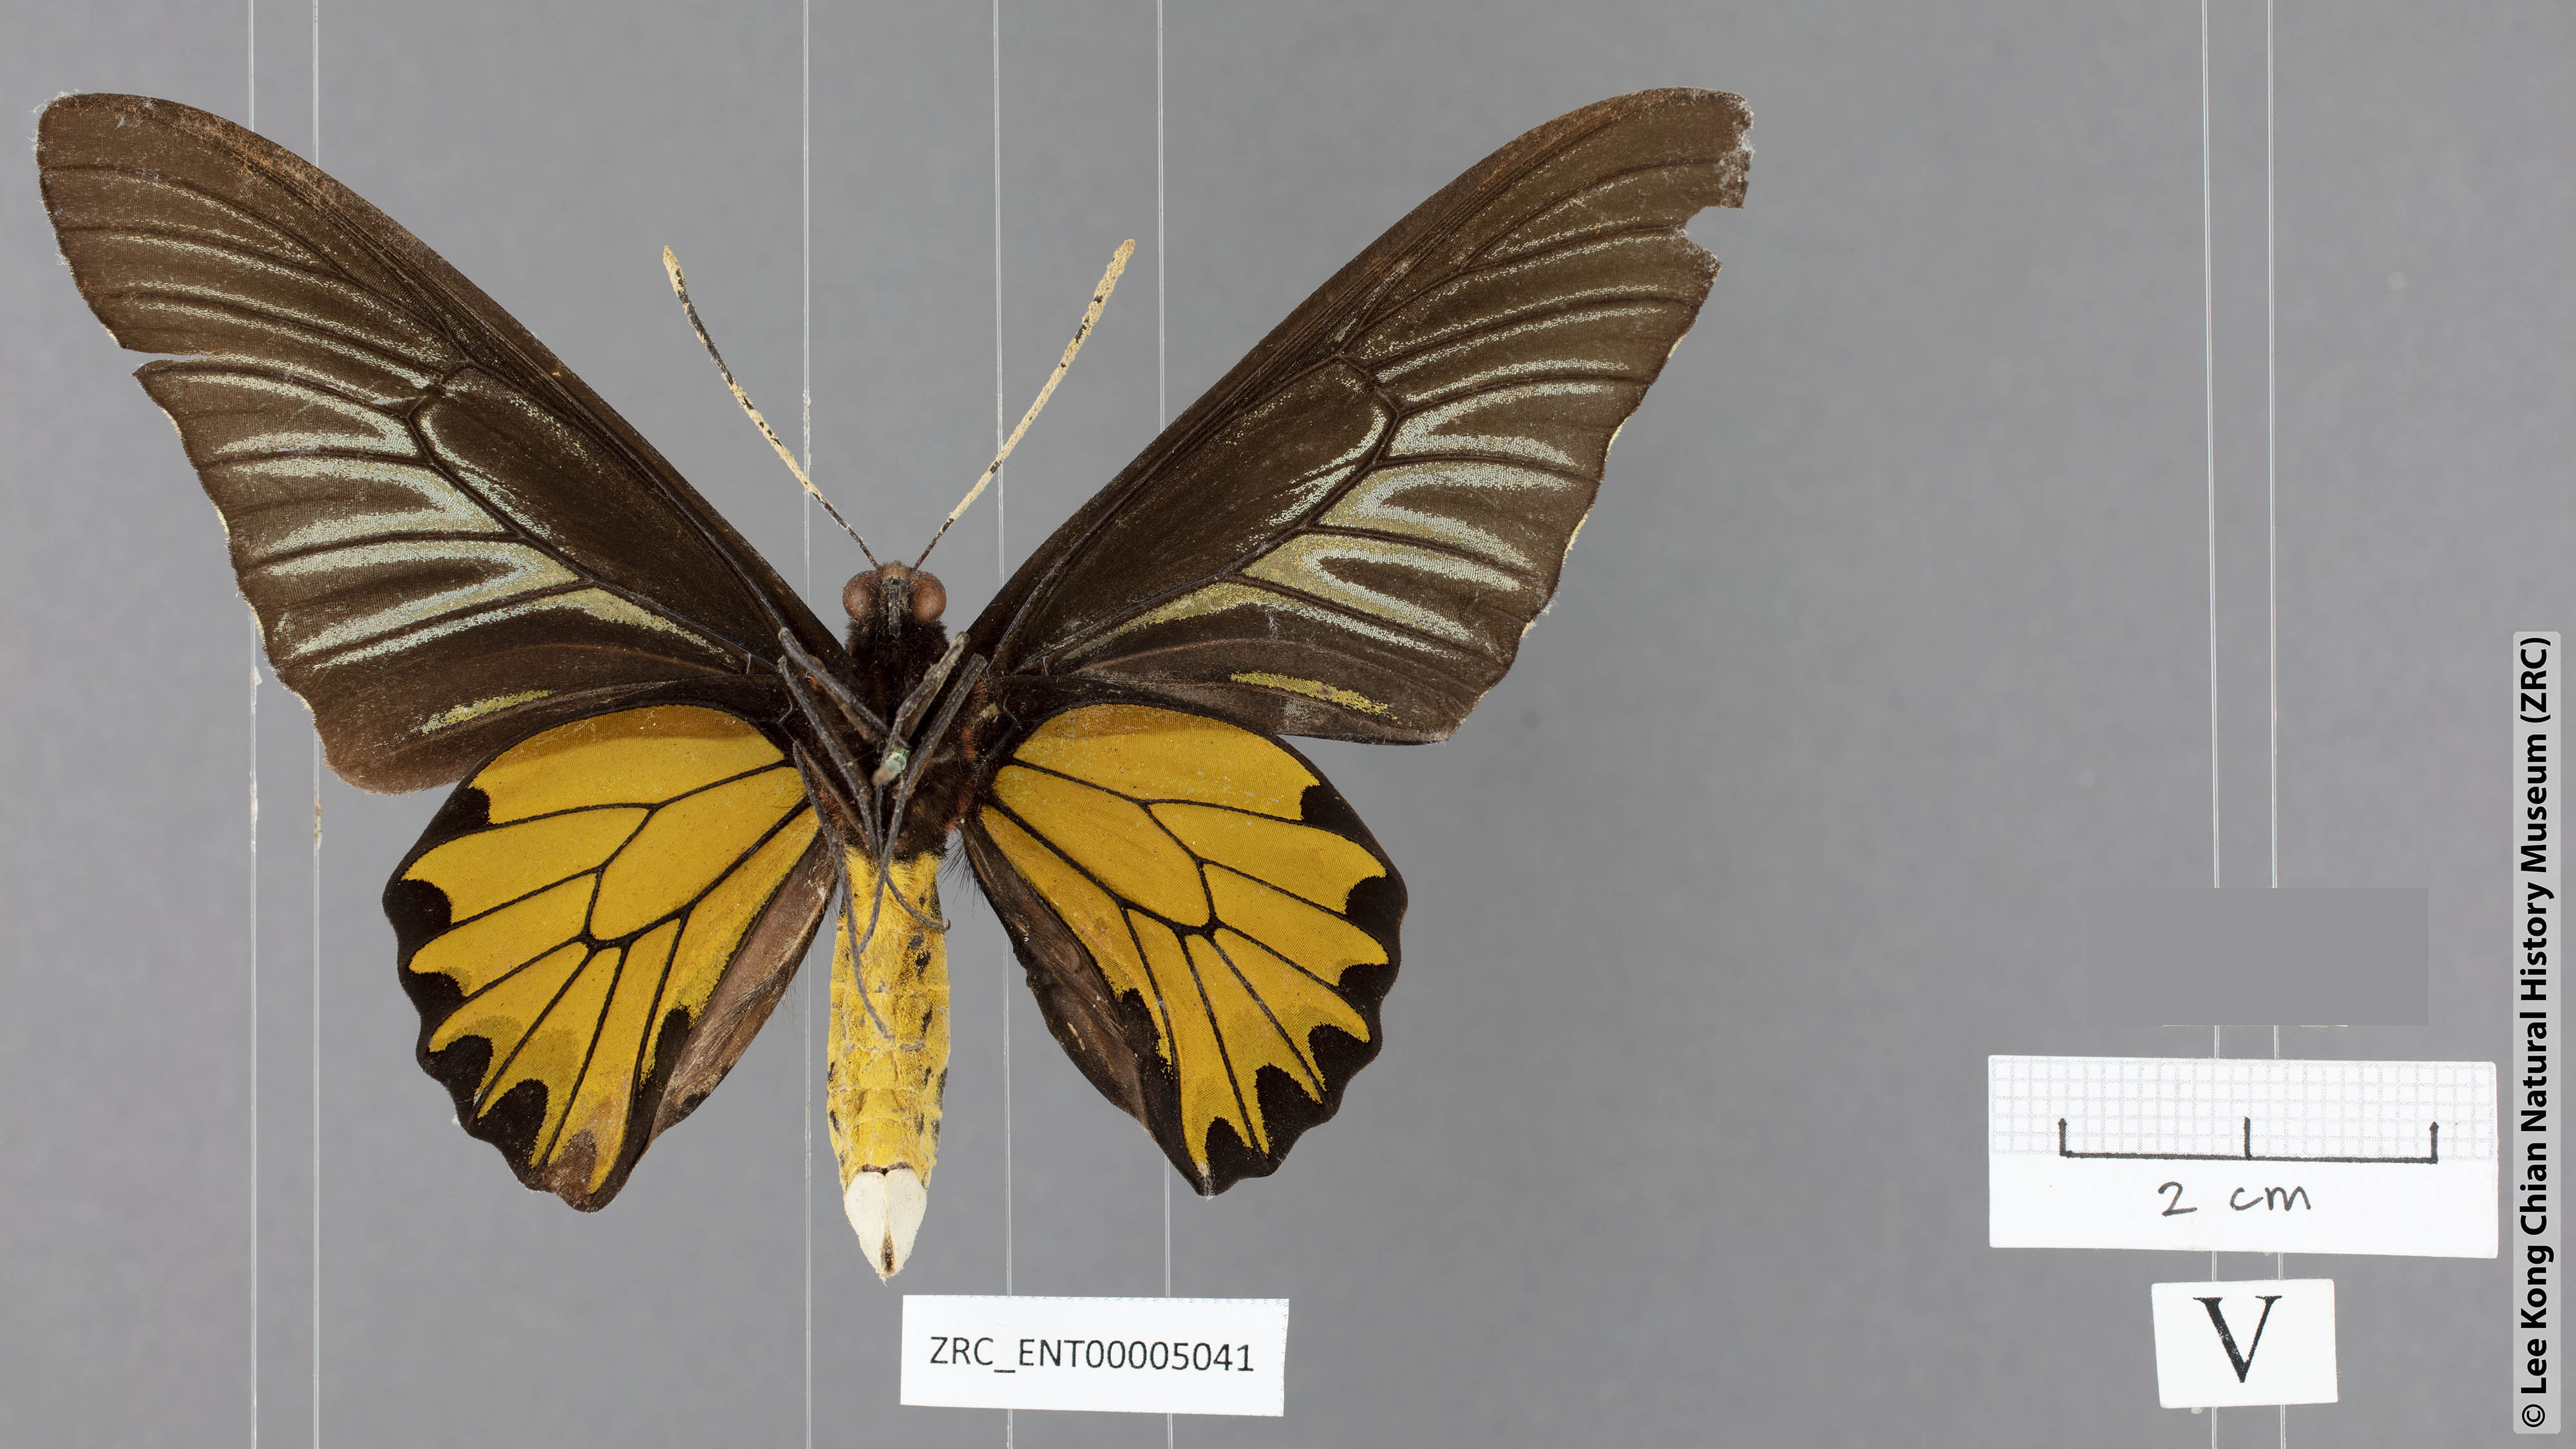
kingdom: Animalia
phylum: Arthropoda
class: Insecta
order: Lepidoptera
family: Papilionidae
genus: Troides
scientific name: Troides aeacus
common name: Golden birdwing
